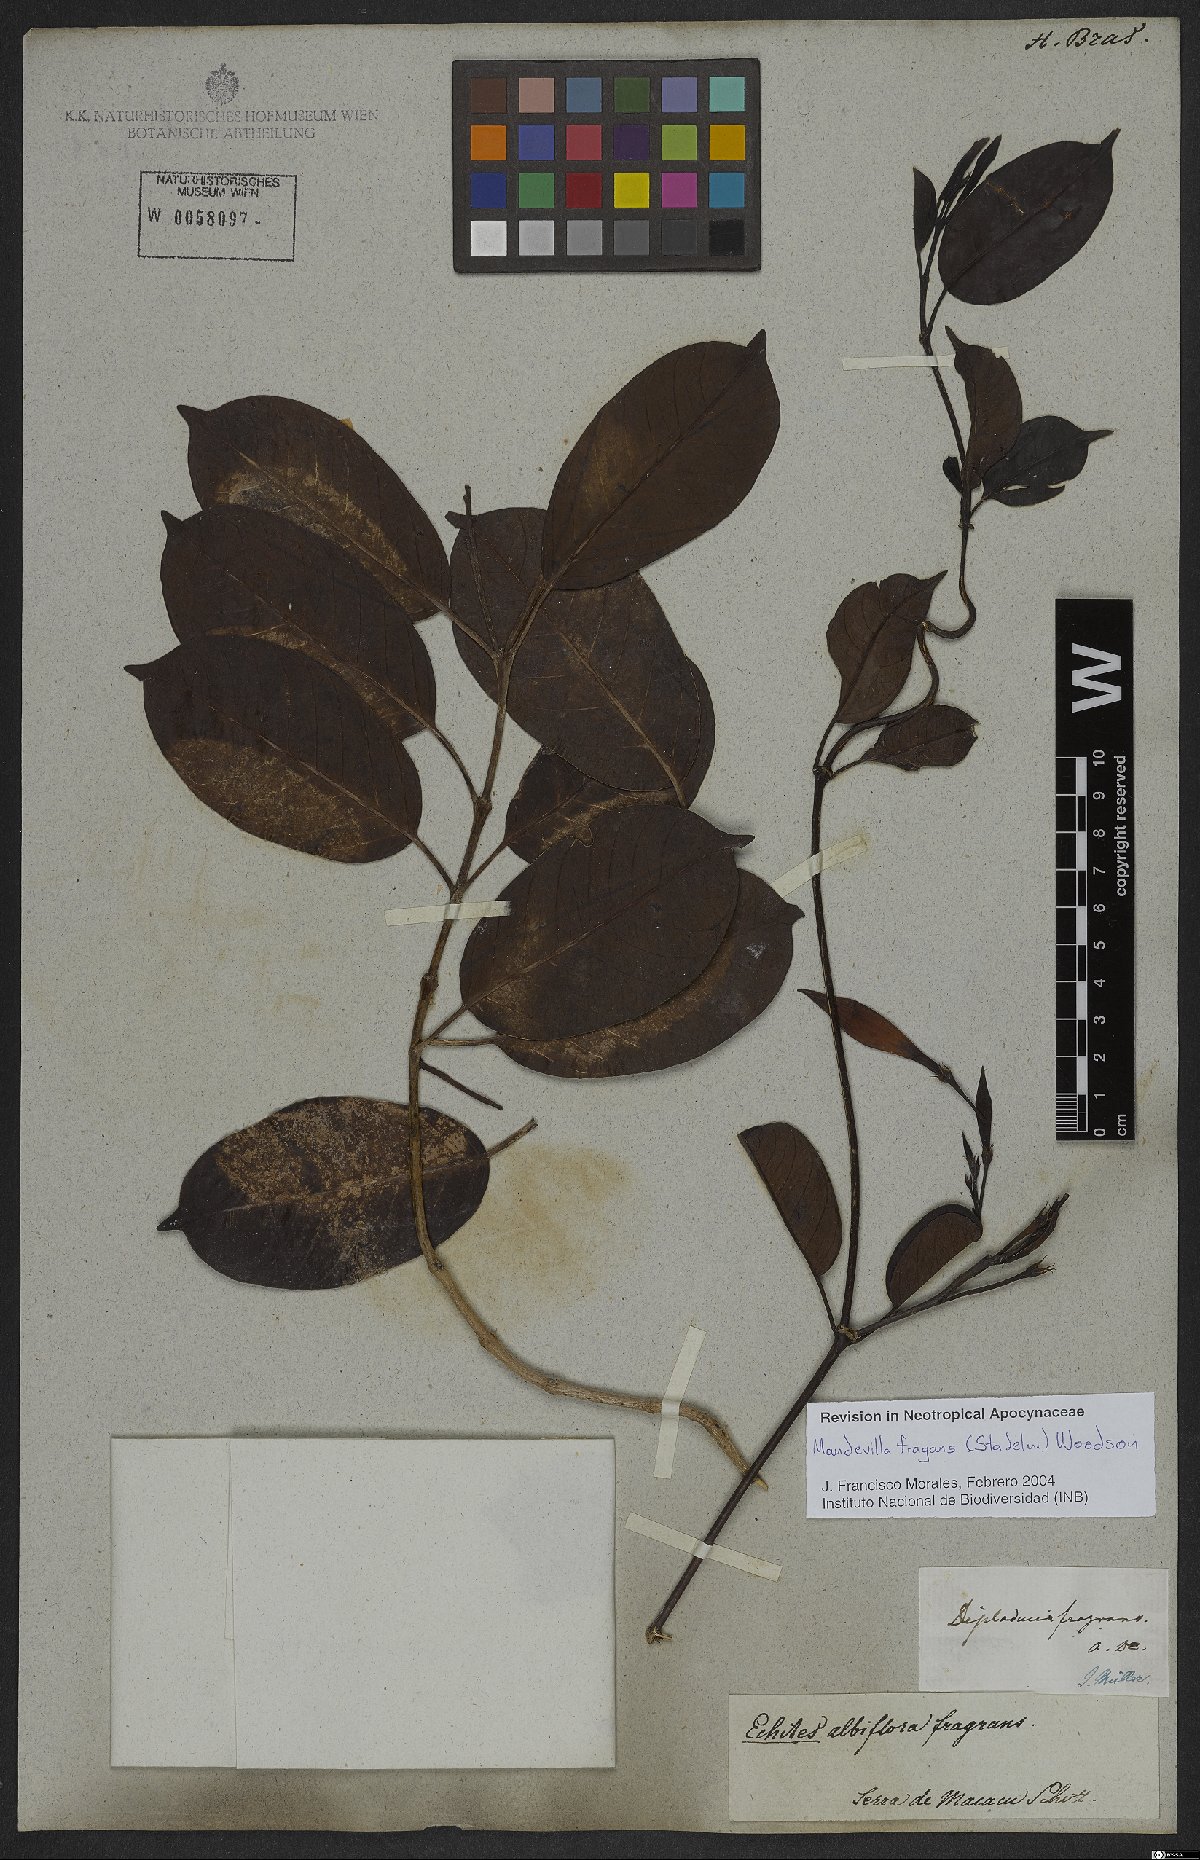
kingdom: Plantae
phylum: Tracheophyta
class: Magnoliopsida
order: Gentianales
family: Apocynaceae
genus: Mandevilla
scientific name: Mandevilla fragrans
